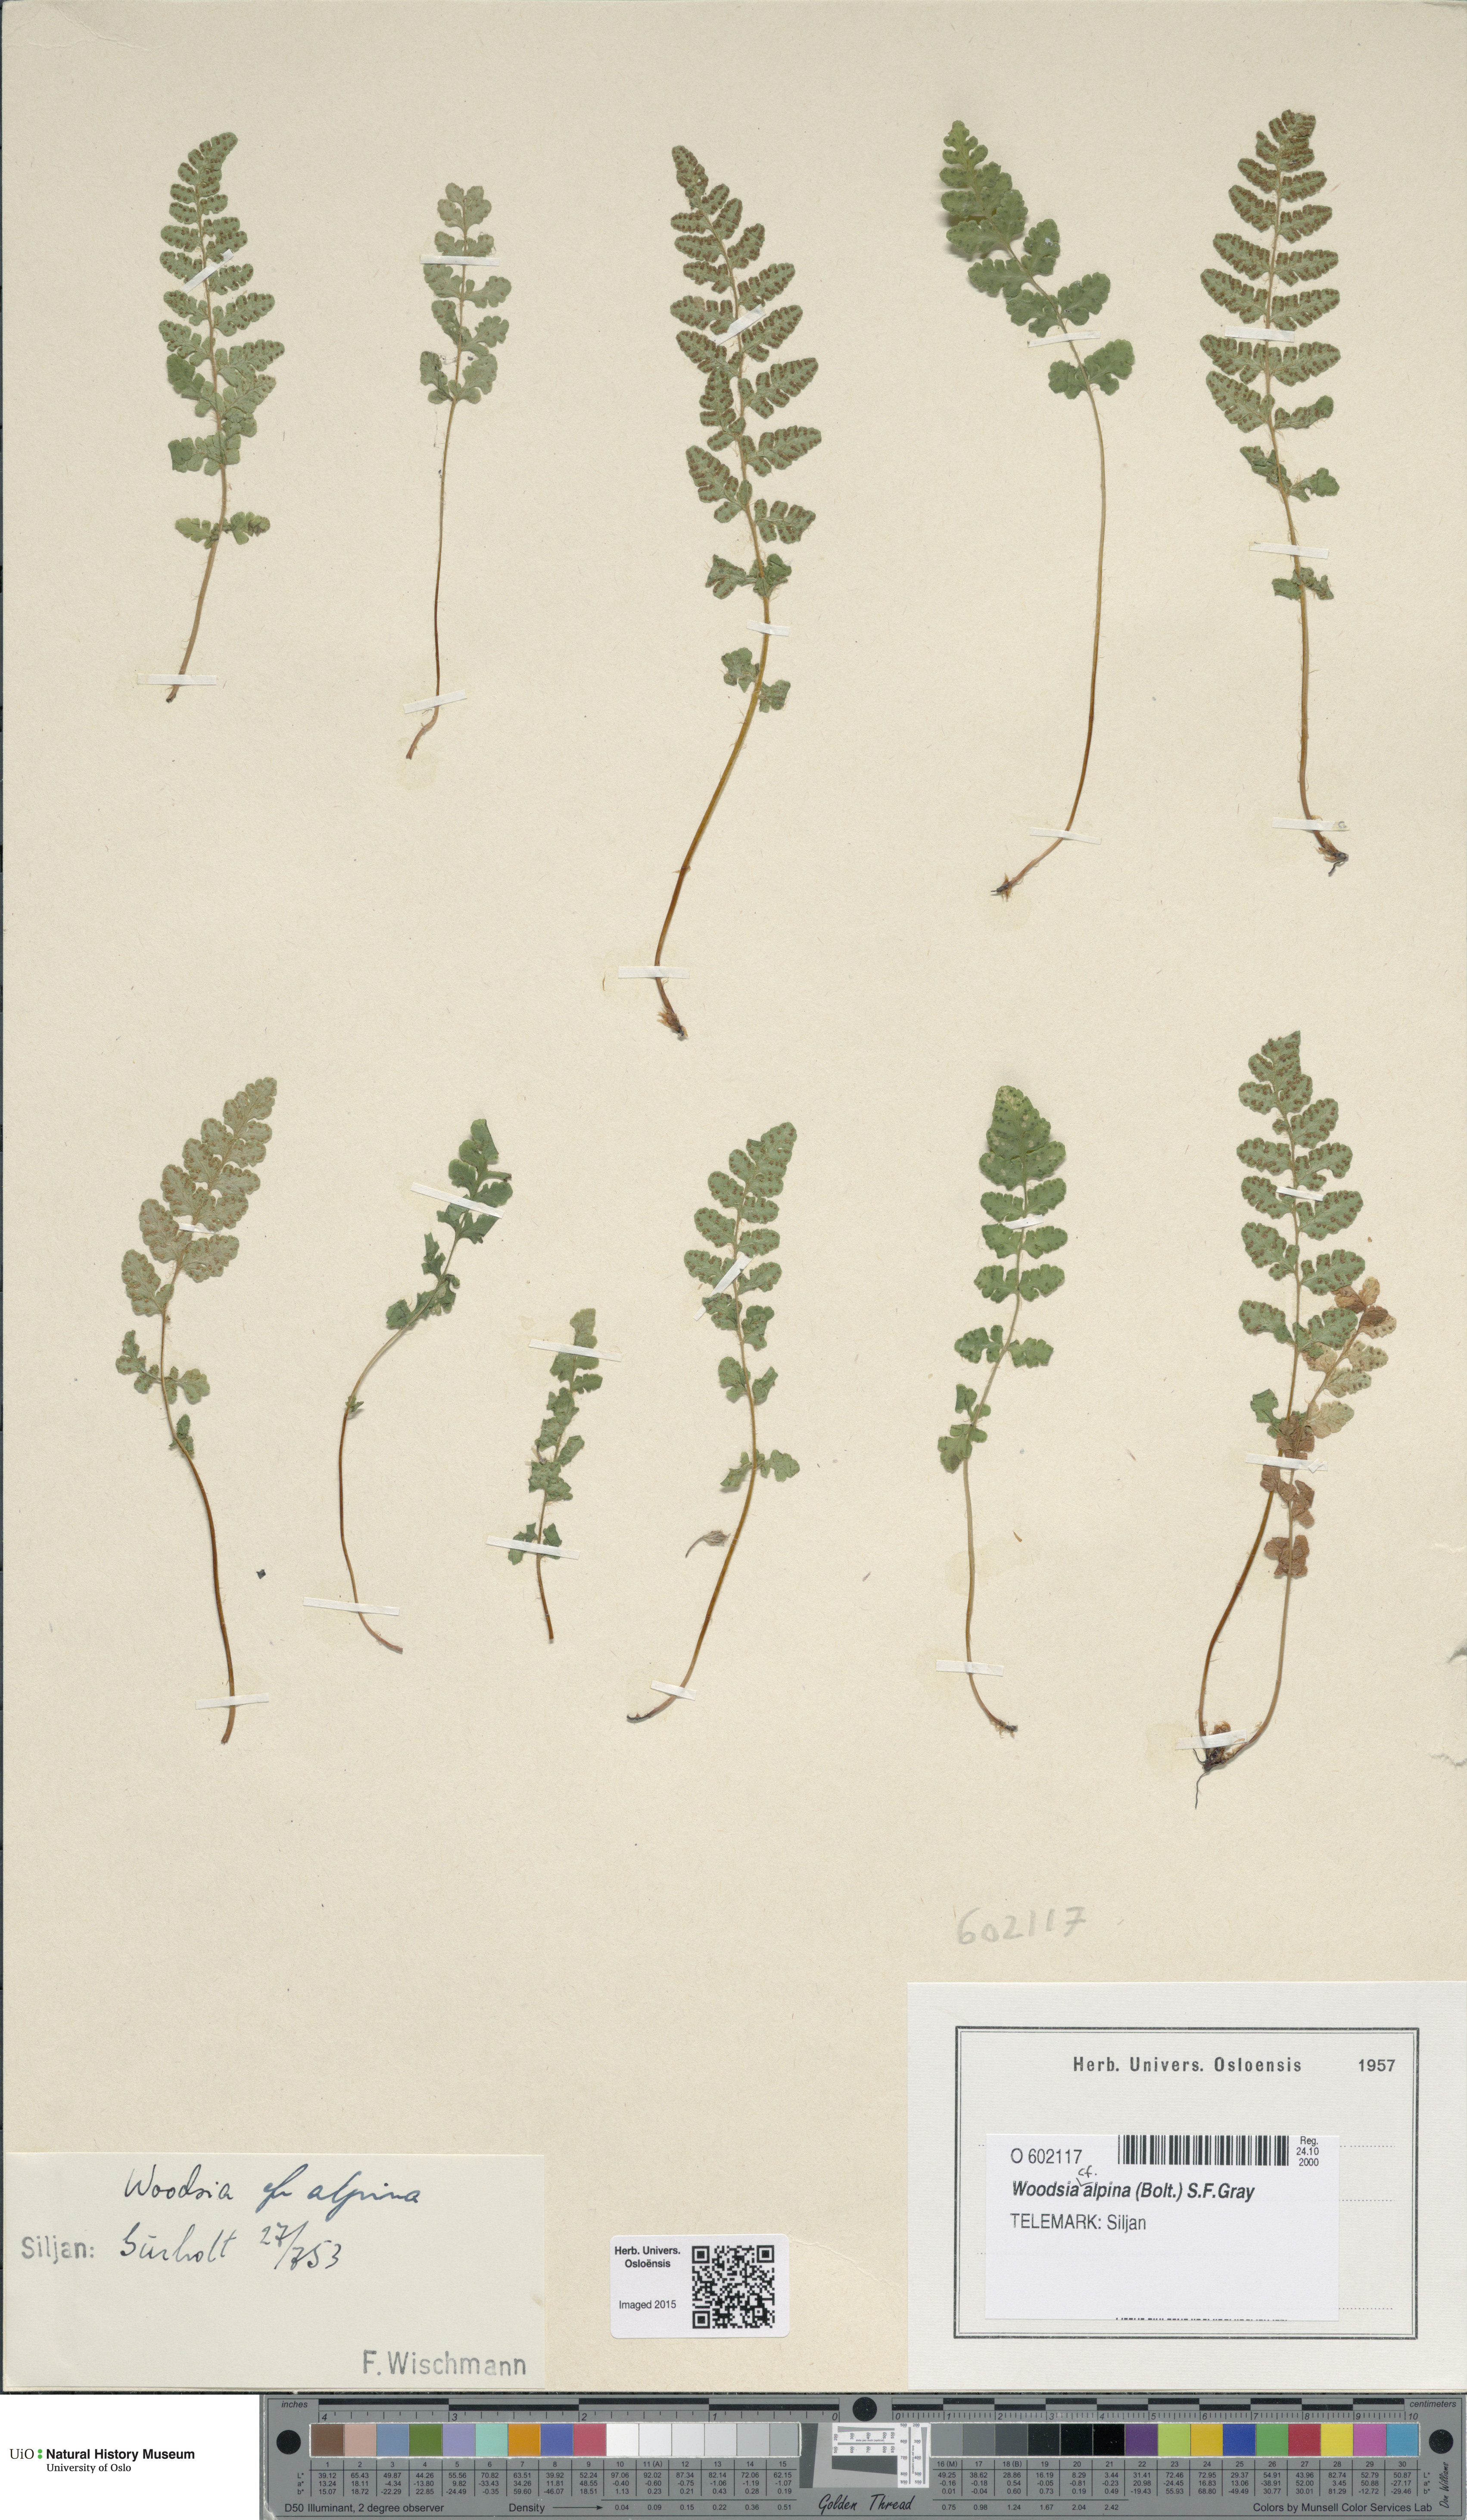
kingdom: Plantae
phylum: Tracheophyta
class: Polypodiopsida
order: Polypodiales
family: Woodsiaceae
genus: Woodsia
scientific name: Woodsia alpina
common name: Alpine woodsia
